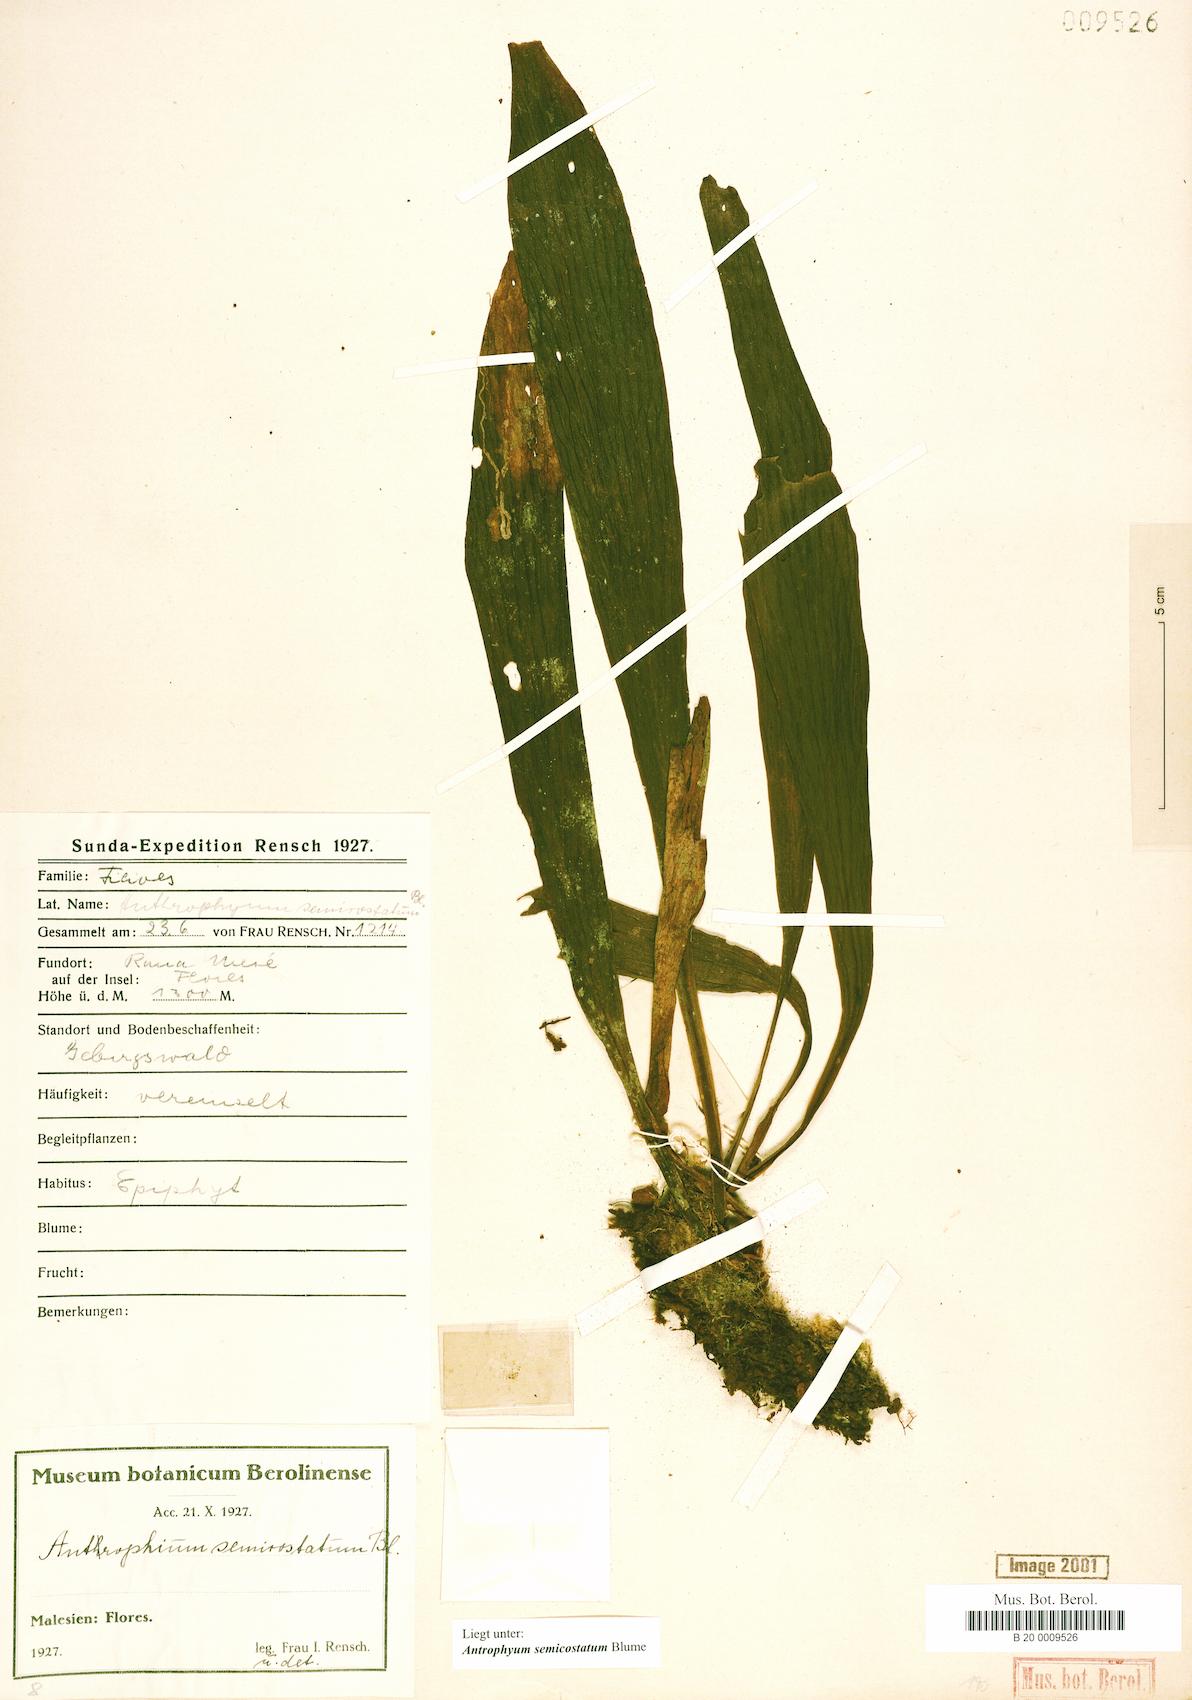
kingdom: Plantae
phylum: Tracheophyta
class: Polypodiopsida
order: Polypodiales
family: Pteridaceae
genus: Antrophyum
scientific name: Antrophyum semicostatum
